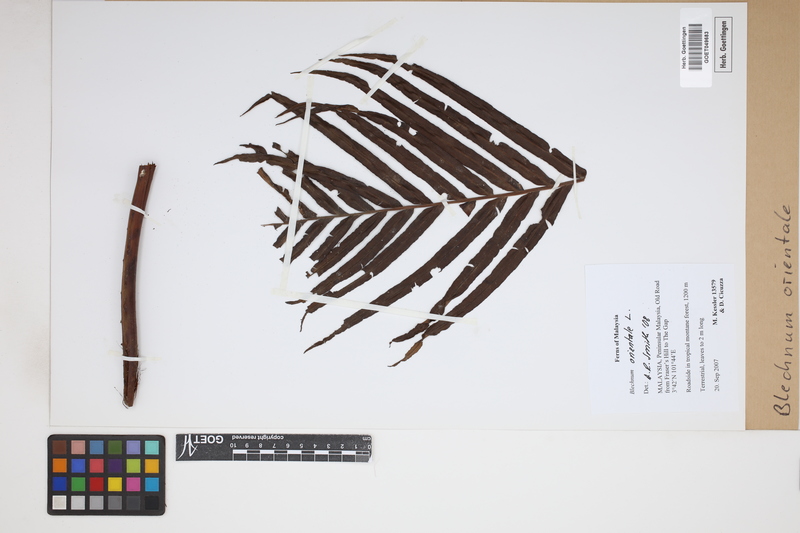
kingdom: Plantae
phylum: Tracheophyta
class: Polypodiopsida
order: Polypodiales
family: Blechnaceae
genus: Blechnopsis
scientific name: Blechnopsis orientalis
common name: Oriental blechnum
